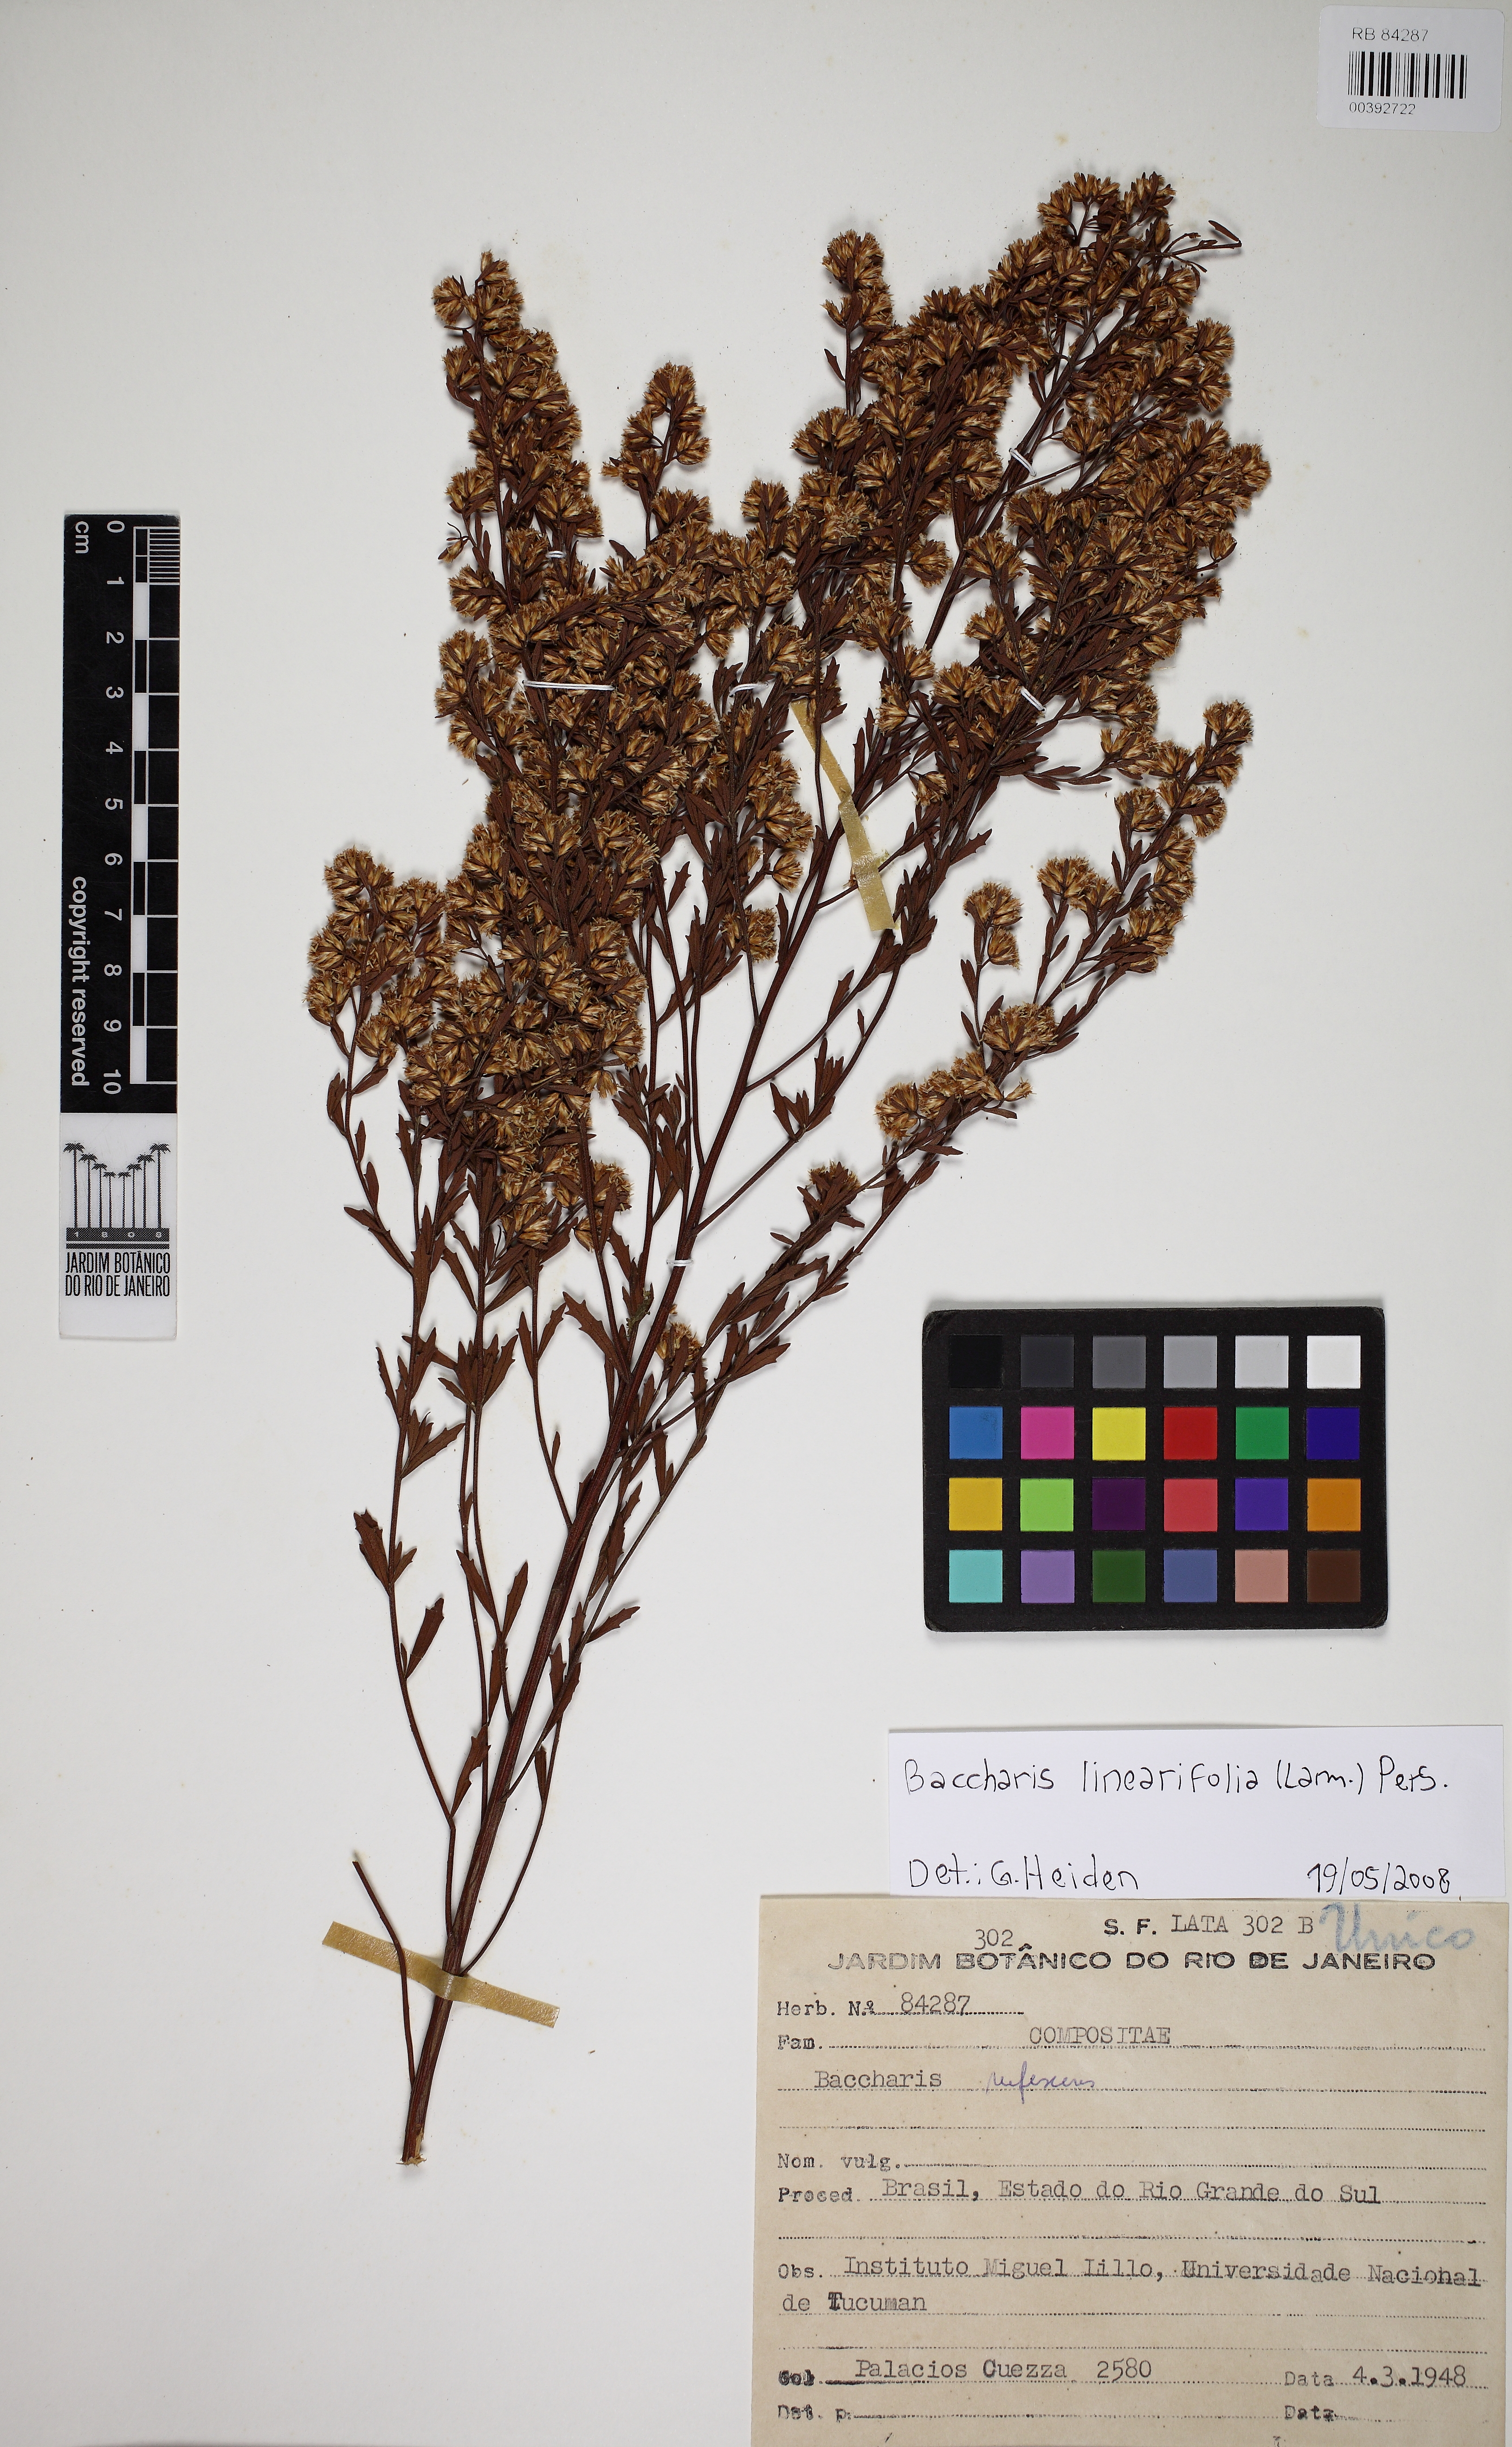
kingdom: Plantae
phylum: Tracheophyta
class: Magnoliopsida
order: Asterales
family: Asteraceae
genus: Baccharis
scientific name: Baccharis rufescens
